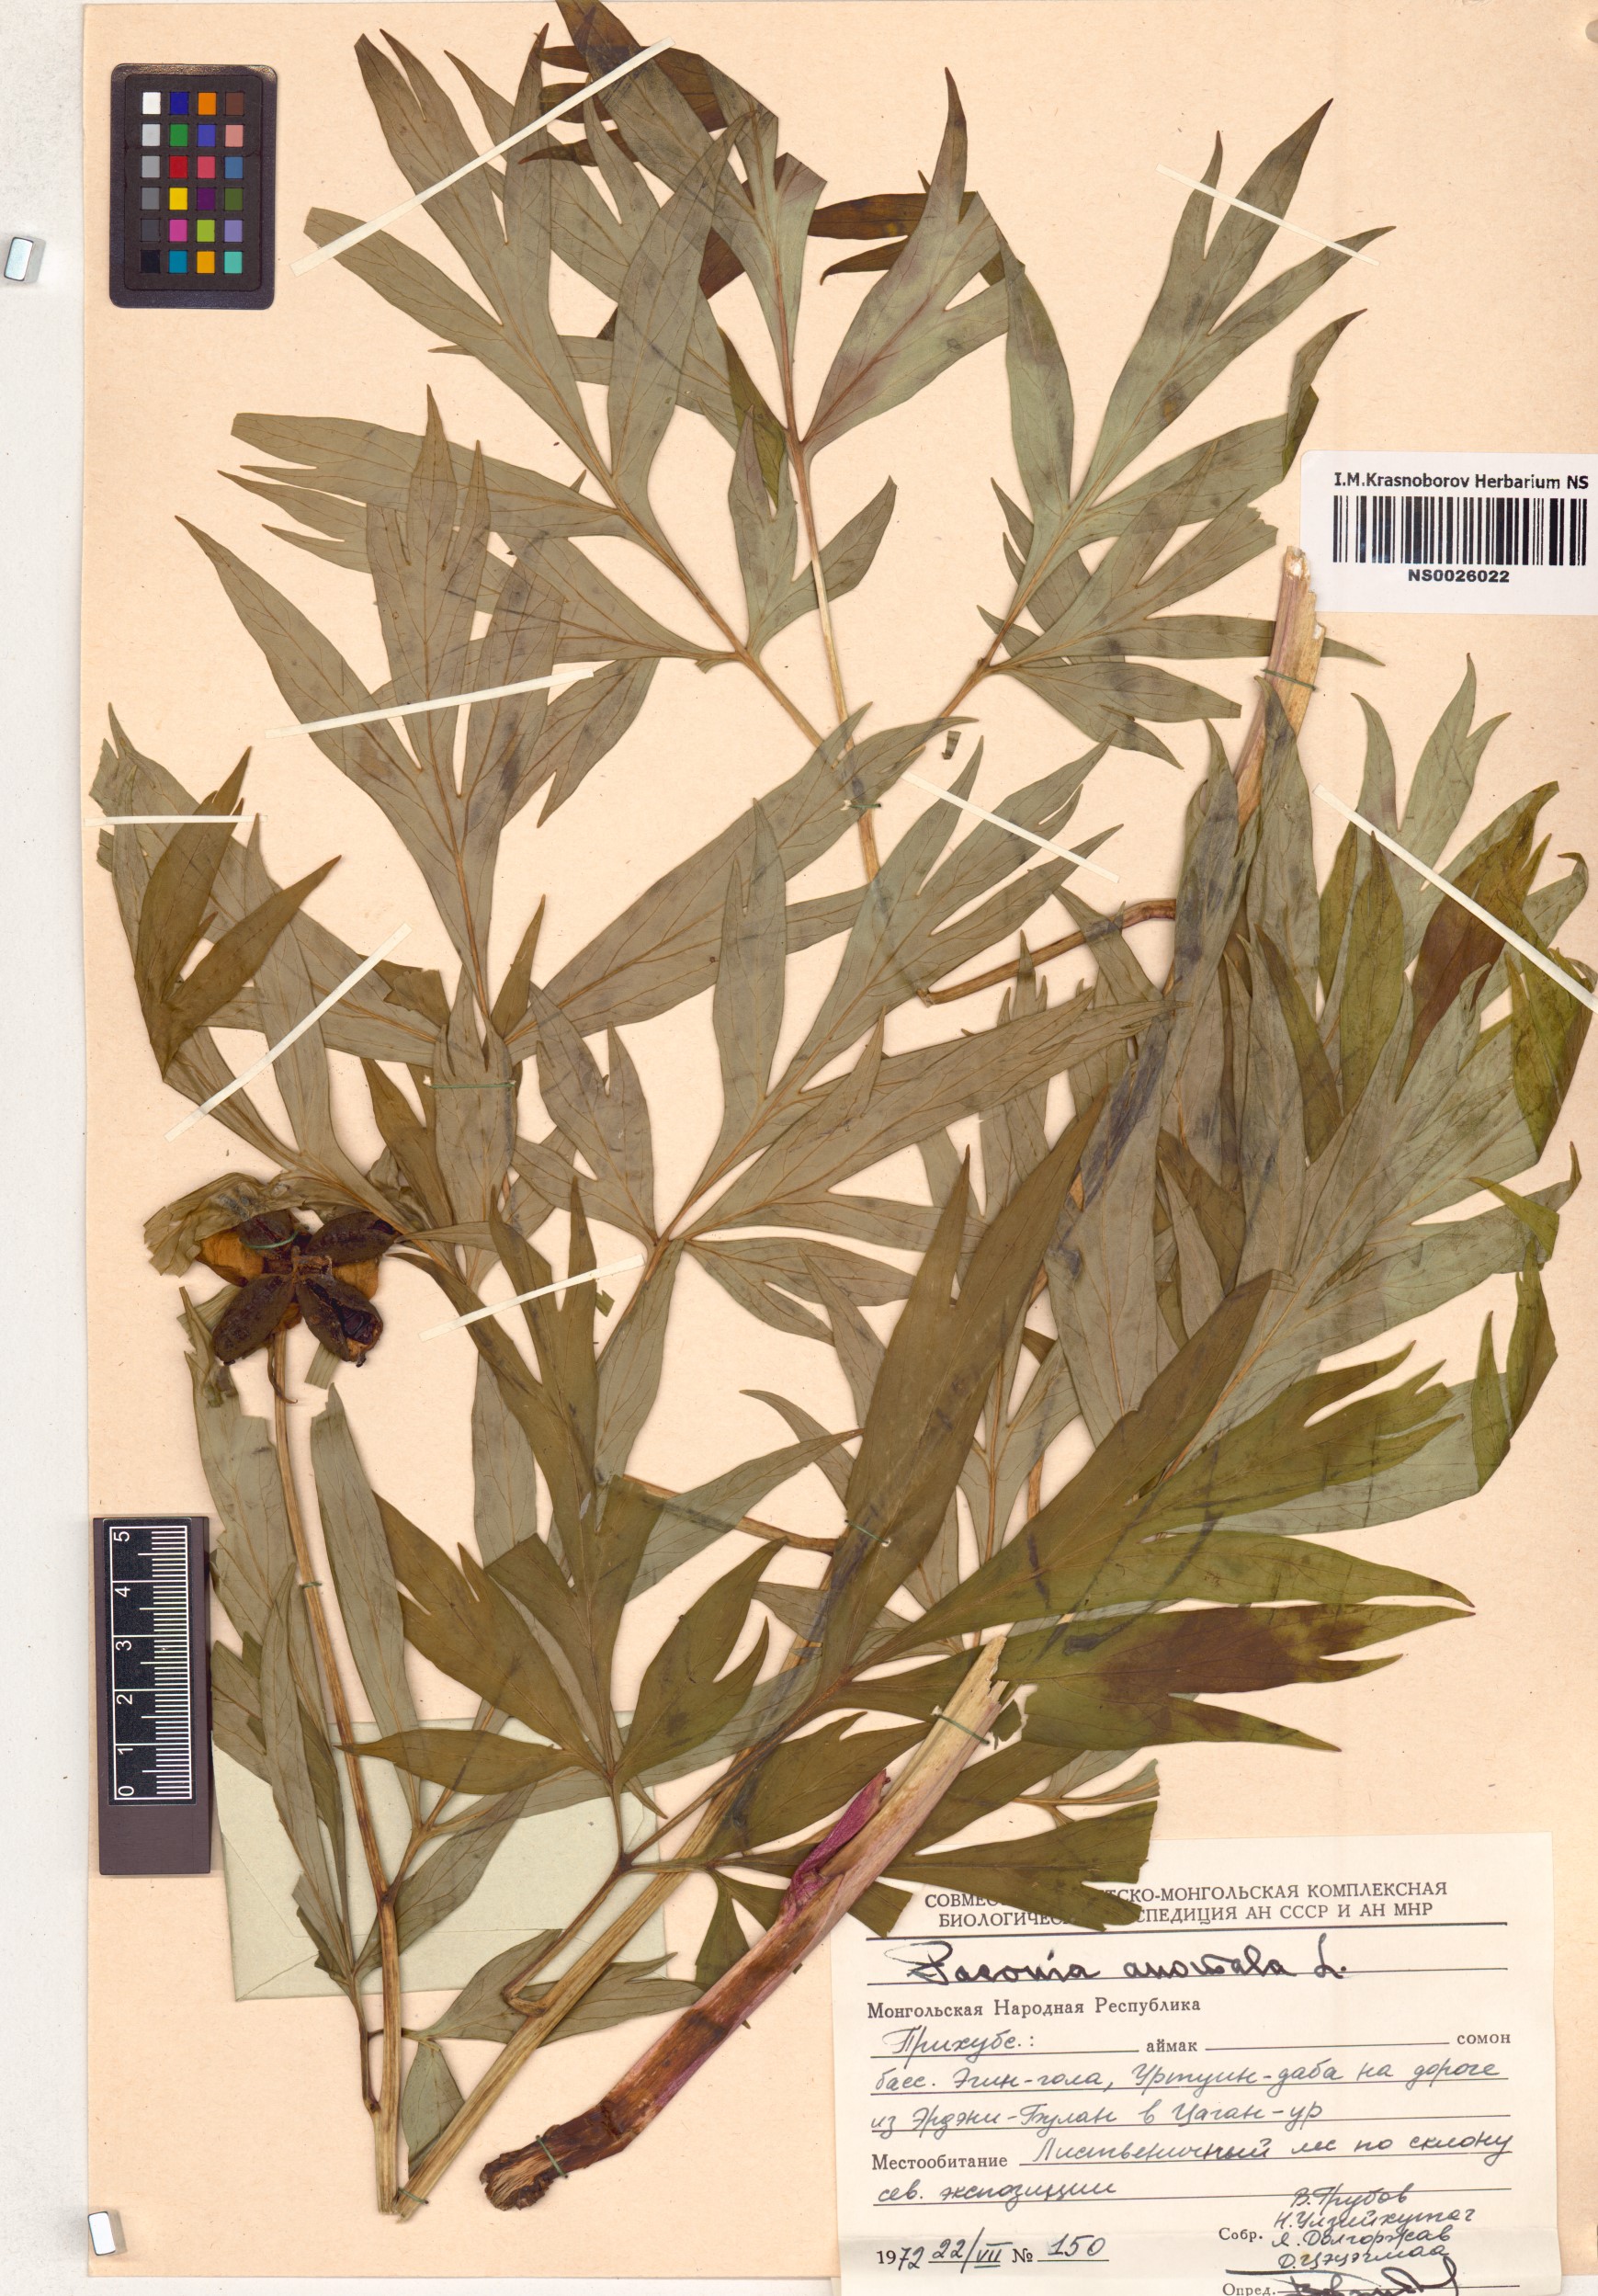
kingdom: Plantae
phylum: Tracheophyta
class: Magnoliopsida
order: Saxifragales
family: Paeoniaceae
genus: Paeonia
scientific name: Paeonia anomala
